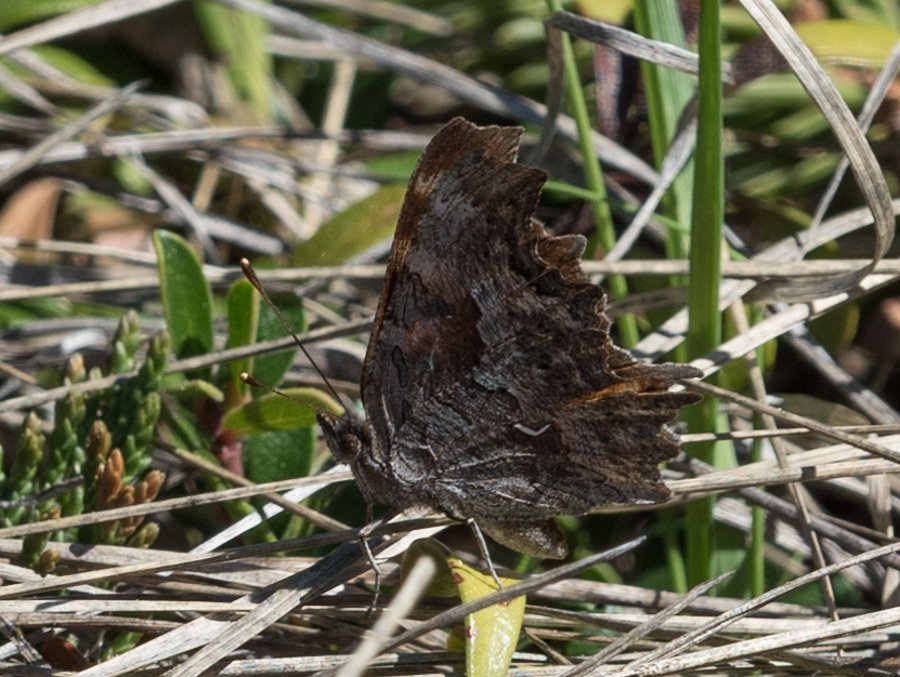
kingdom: Animalia
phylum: Arthropoda
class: Insecta
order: Lepidoptera
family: Nymphalidae
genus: Polygonia
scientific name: Polygonia gracilis
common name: Hoary Comma
